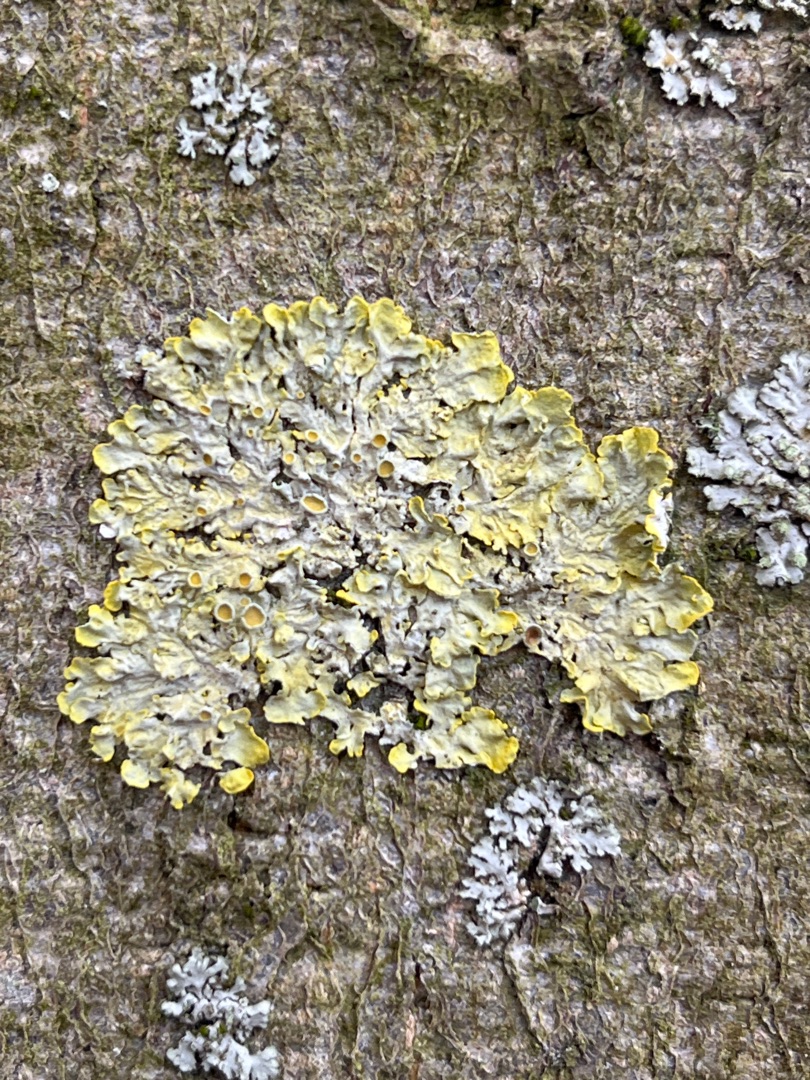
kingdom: Fungi
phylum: Ascomycota
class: Lecanoromycetes
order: Teloschistales
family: Teloschistaceae
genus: Xanthoria
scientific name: Xanthoria parietina
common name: Almindelig væggelav
